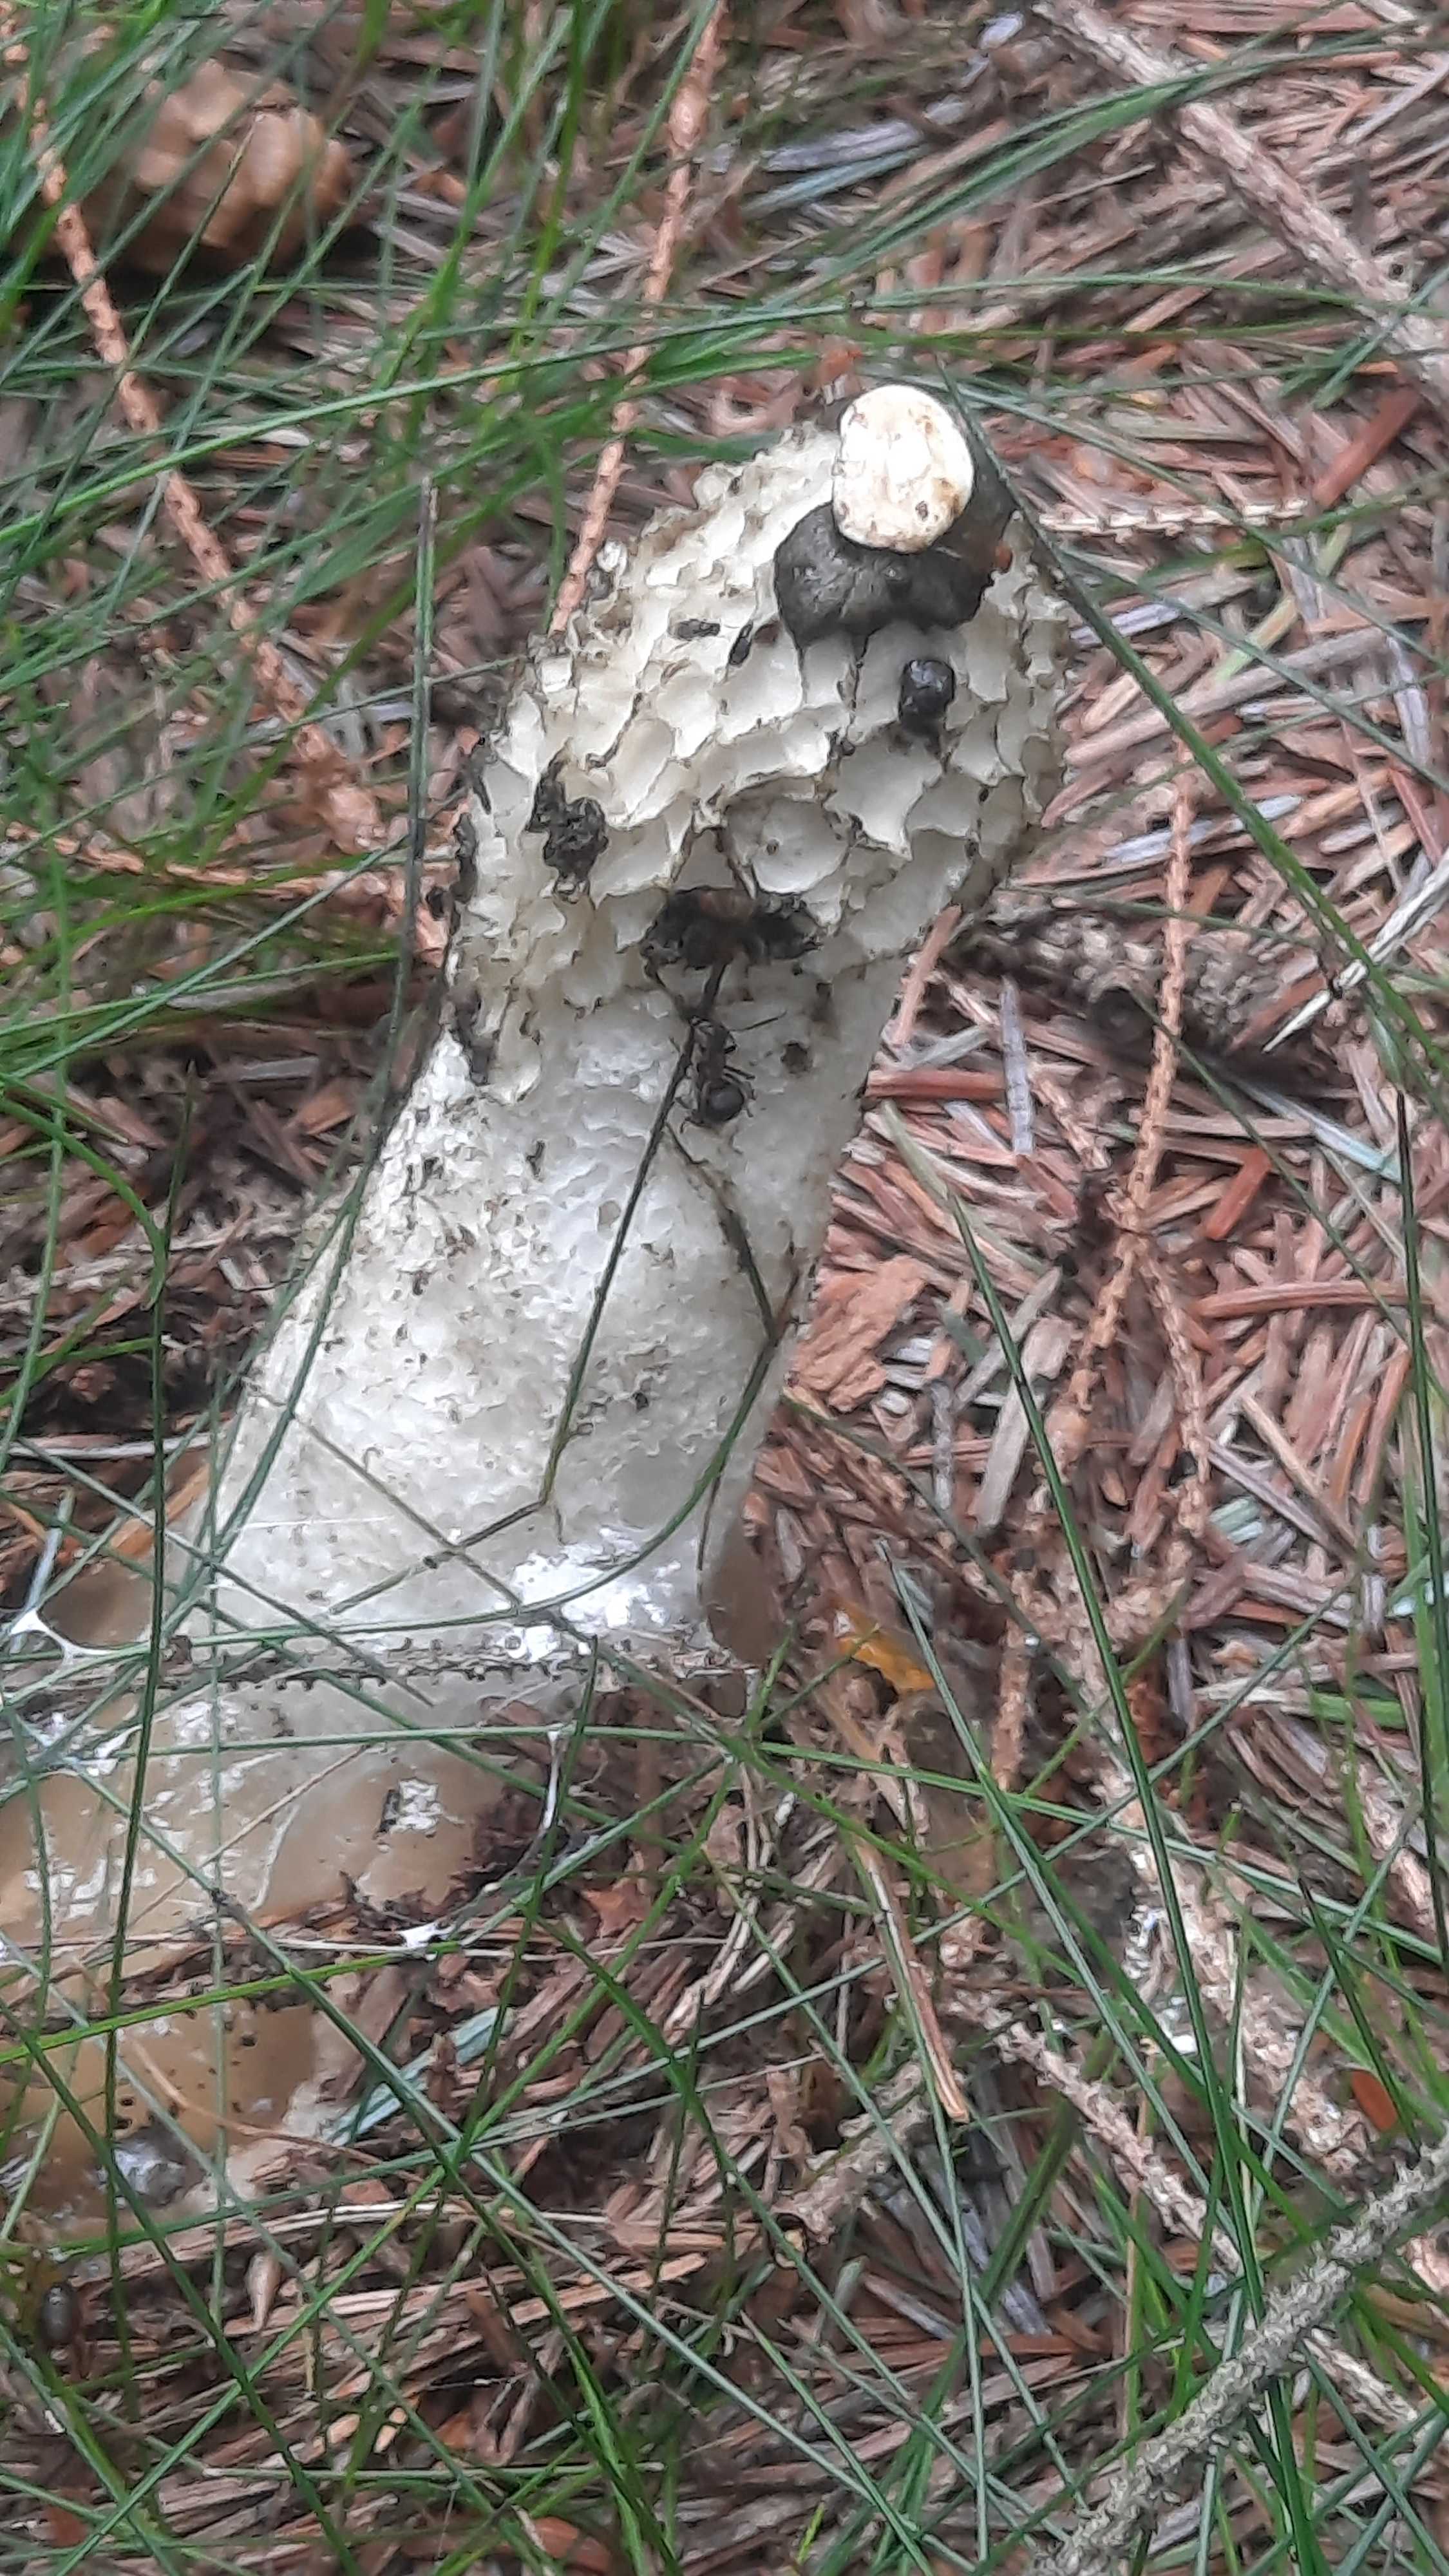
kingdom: Fungi
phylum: Basidiomycota
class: Agaricomycetes
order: Phallales
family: Phallaceae
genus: Phallus
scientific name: Phallus impudicus
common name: almindelig stinksvamp
